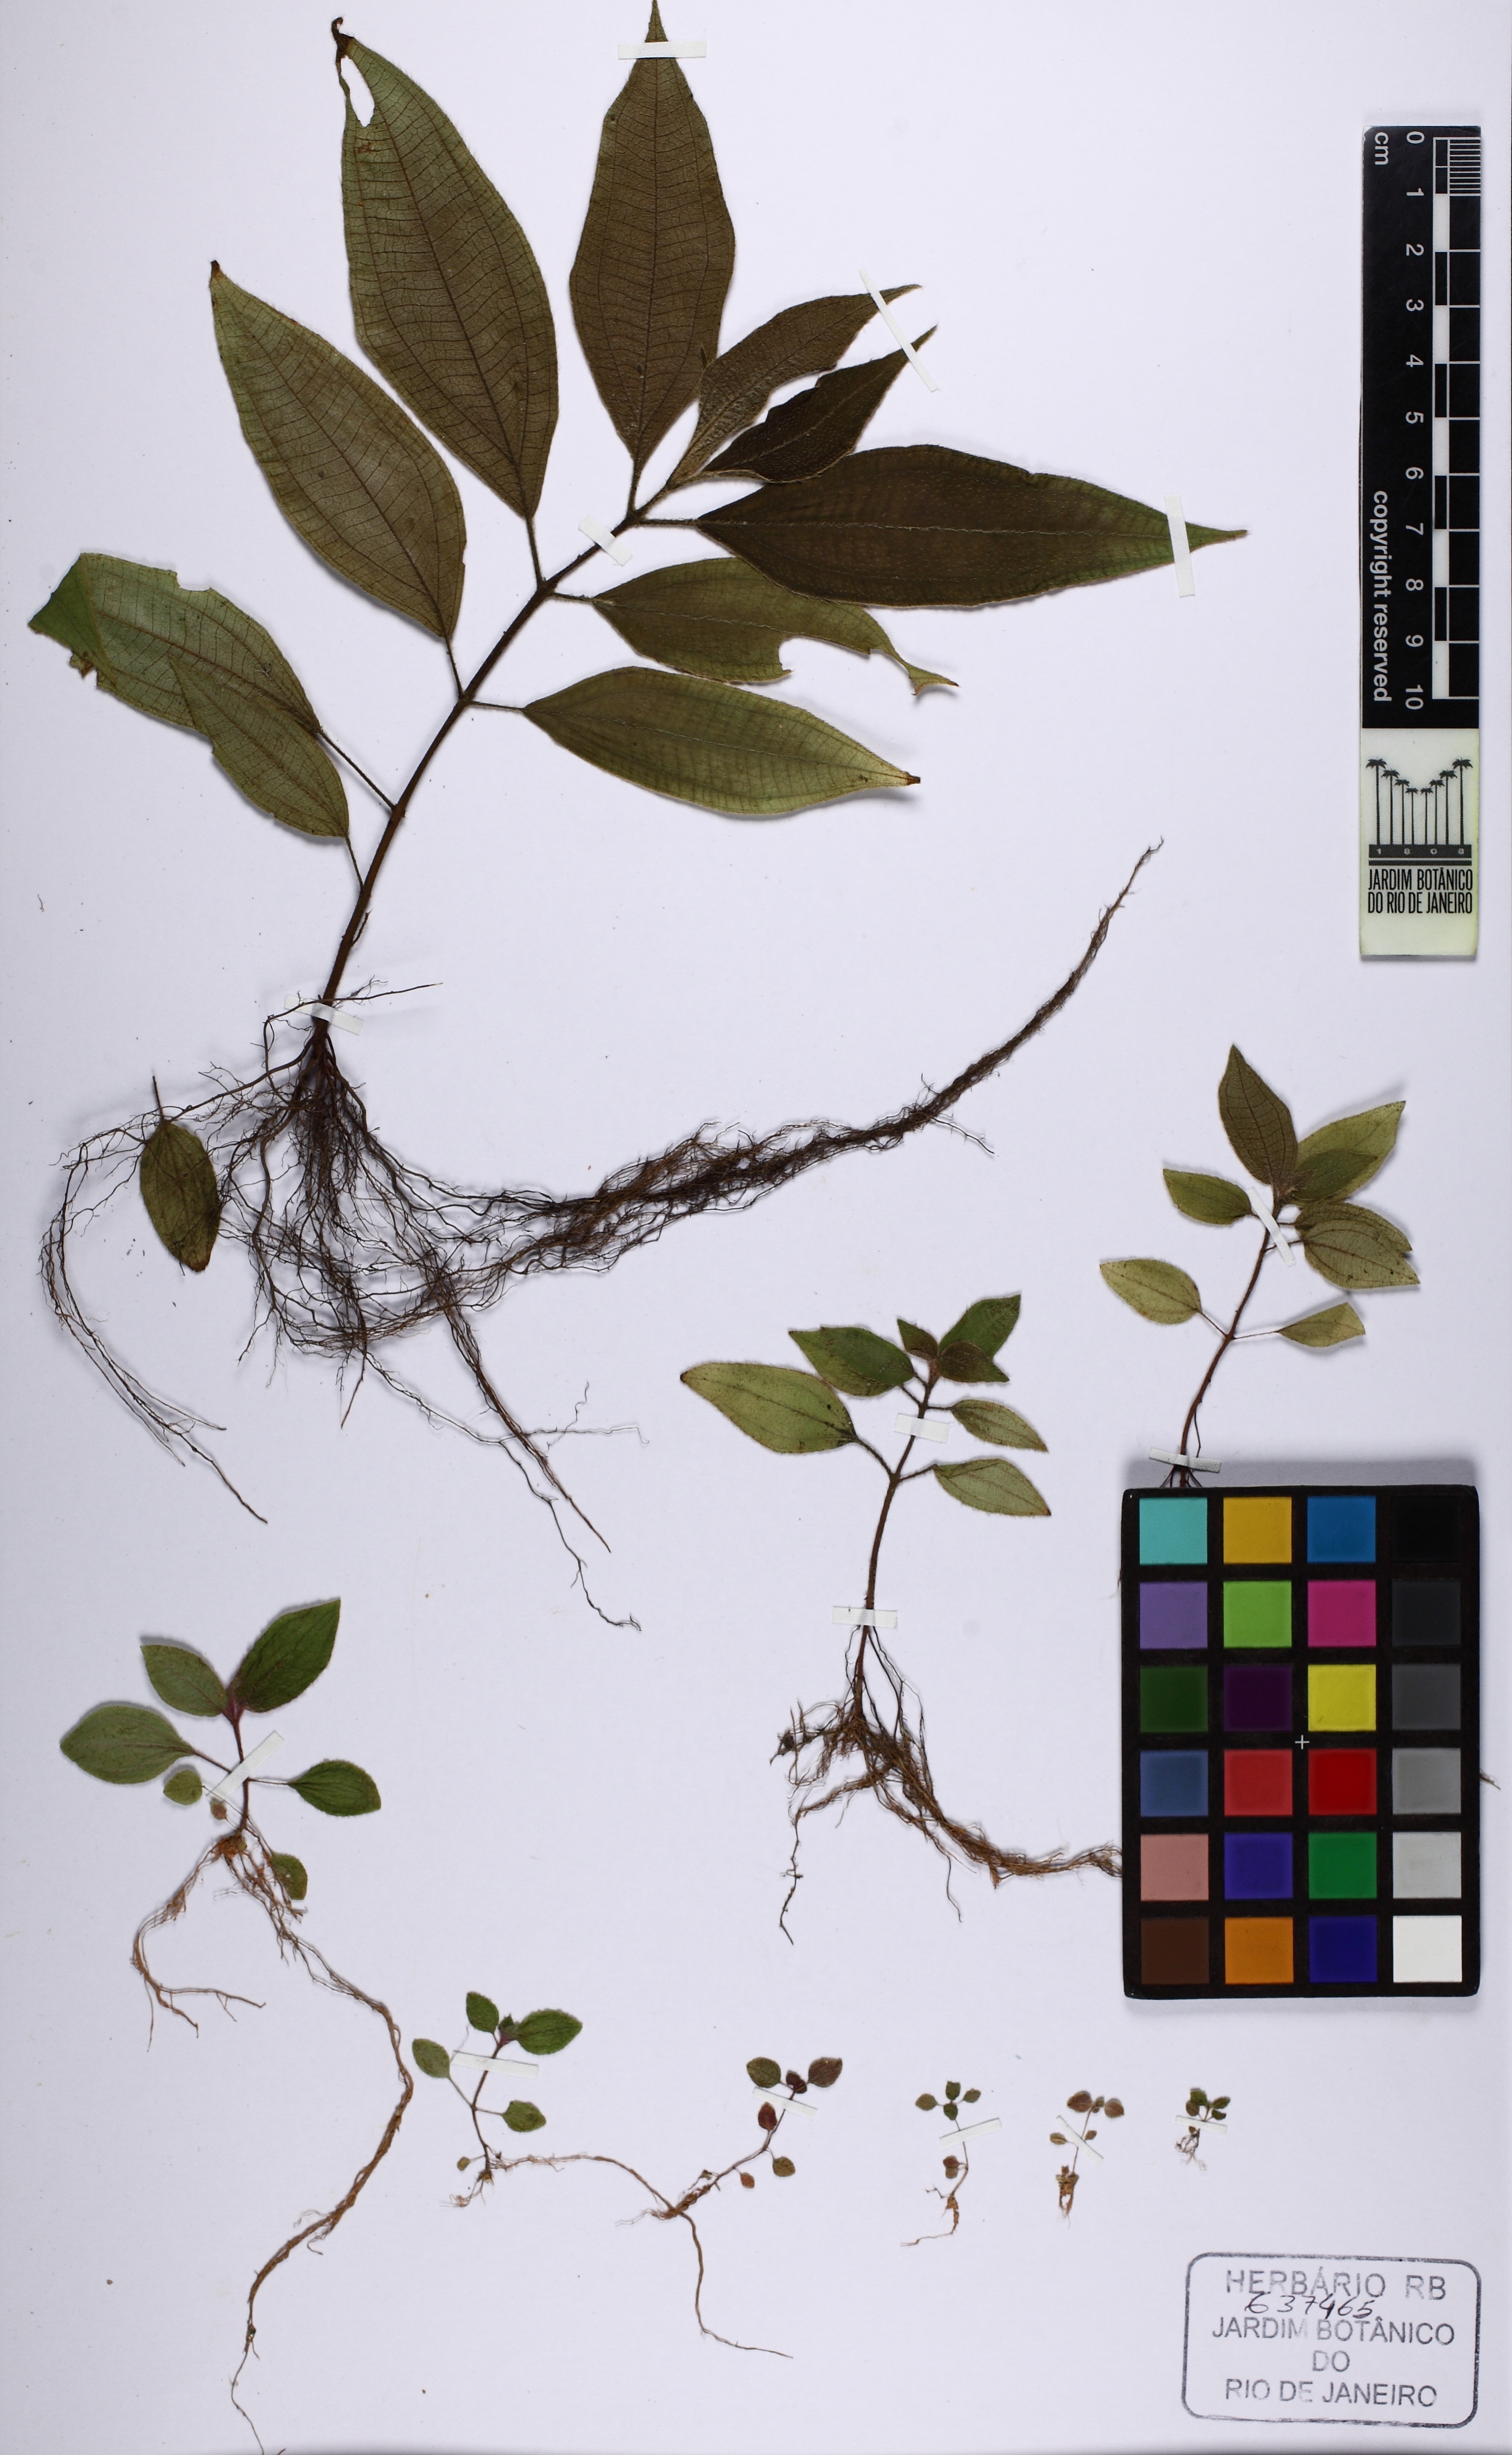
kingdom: Plantae
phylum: Tracheophyta
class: Magnoliopsida
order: Myrtales
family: Melastomataceae
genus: Miconia
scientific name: Miconia amygdaloides
